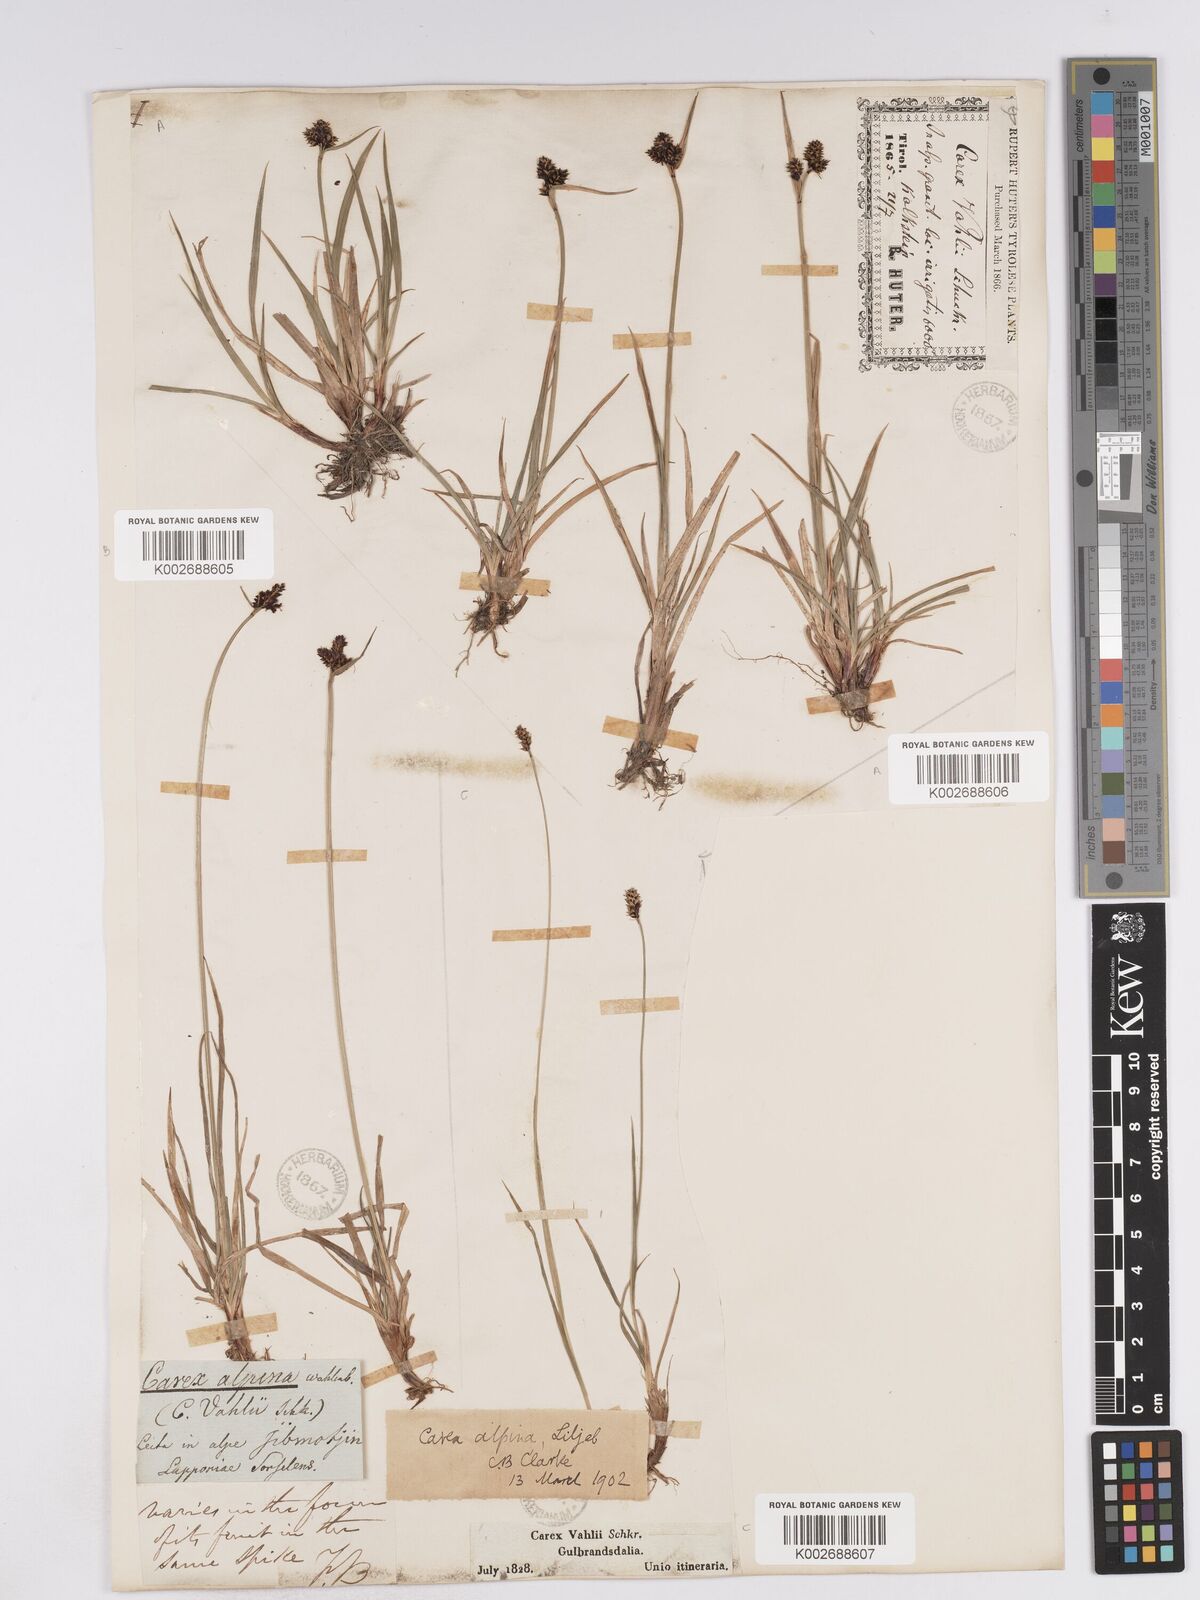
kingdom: Plantae
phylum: Tracheophyta
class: Liliopsida
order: Poales
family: Cyperaceae
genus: Carex
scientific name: Carex norvegica
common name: Close-headed alpine-sedge
